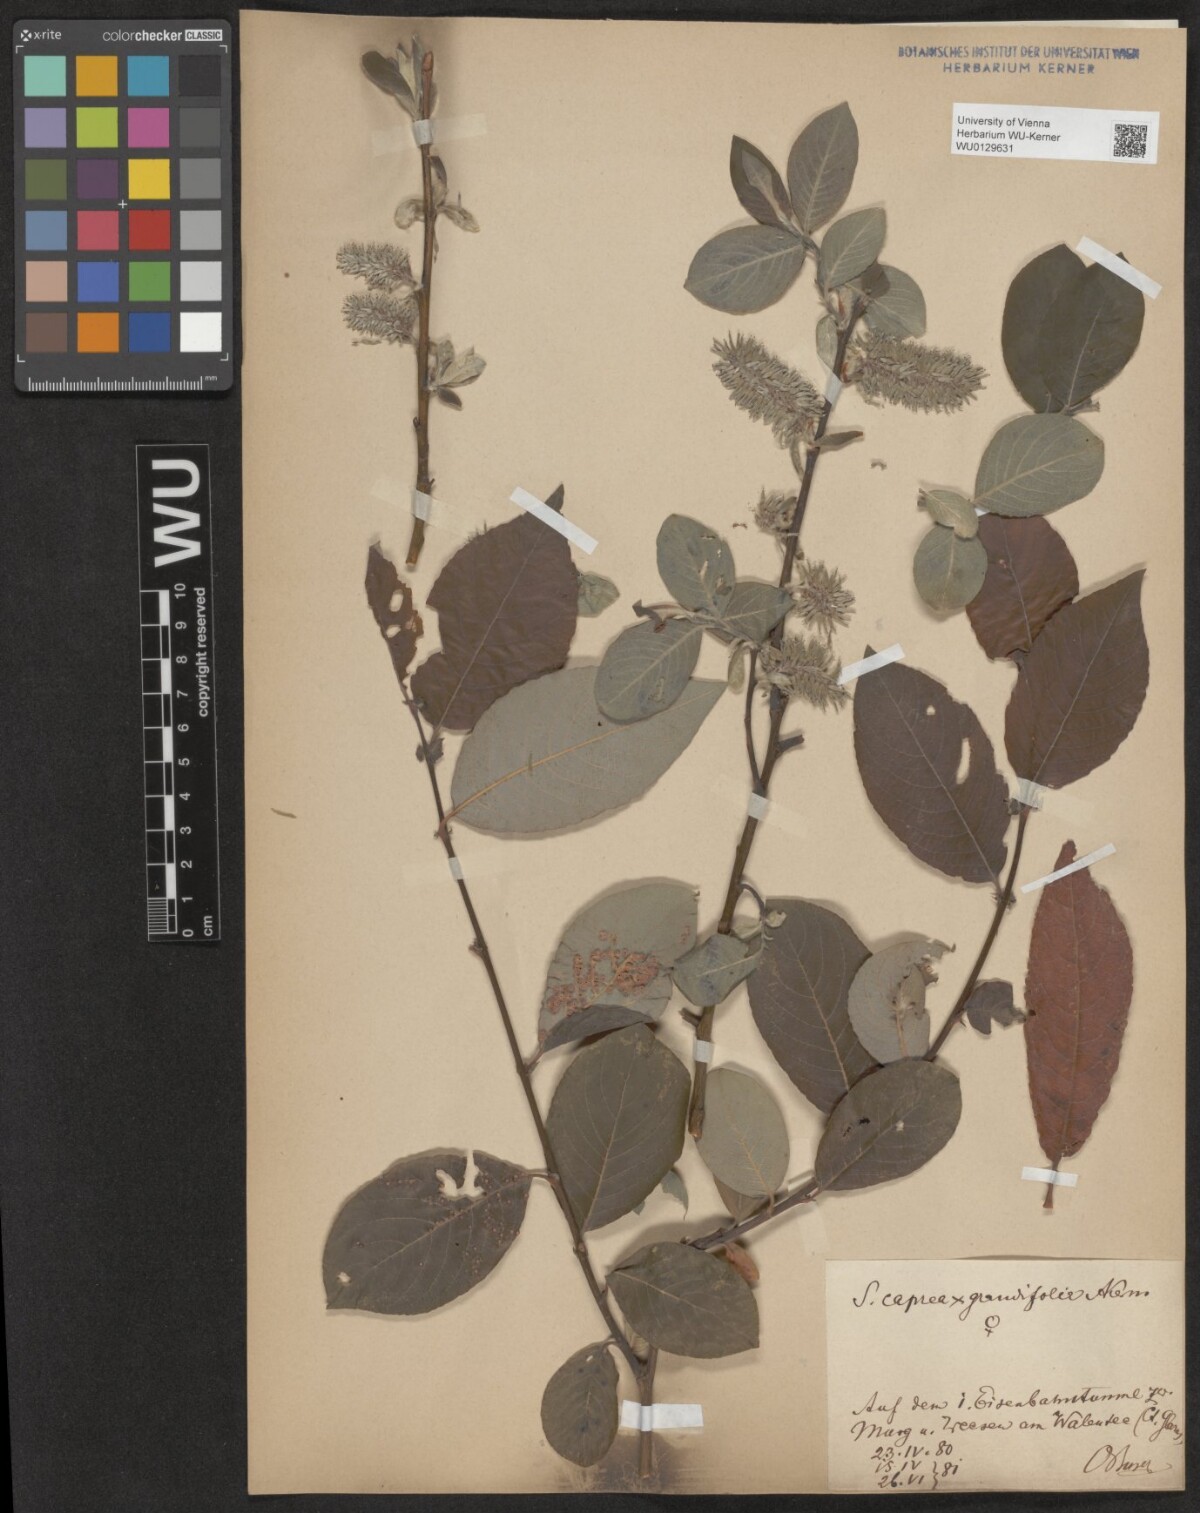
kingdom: Plantae
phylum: Tracheophyta
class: Magnoliopsida
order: Malpighiales
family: Salicaceae
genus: Salix
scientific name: Salix dendroides
